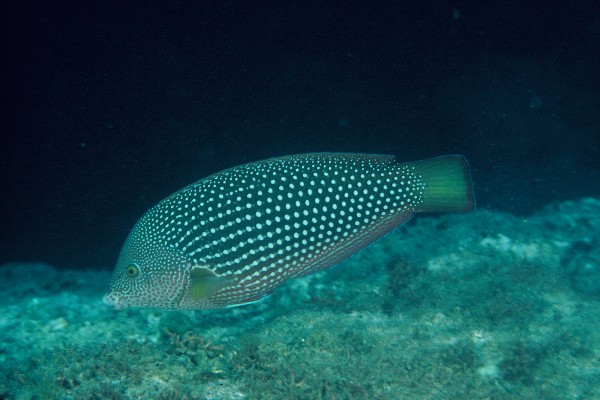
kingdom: Animalia
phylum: Chordata
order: Perciformes
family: Labridae
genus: Anampses
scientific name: Anampses cuvier
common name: Pearl wrasse
